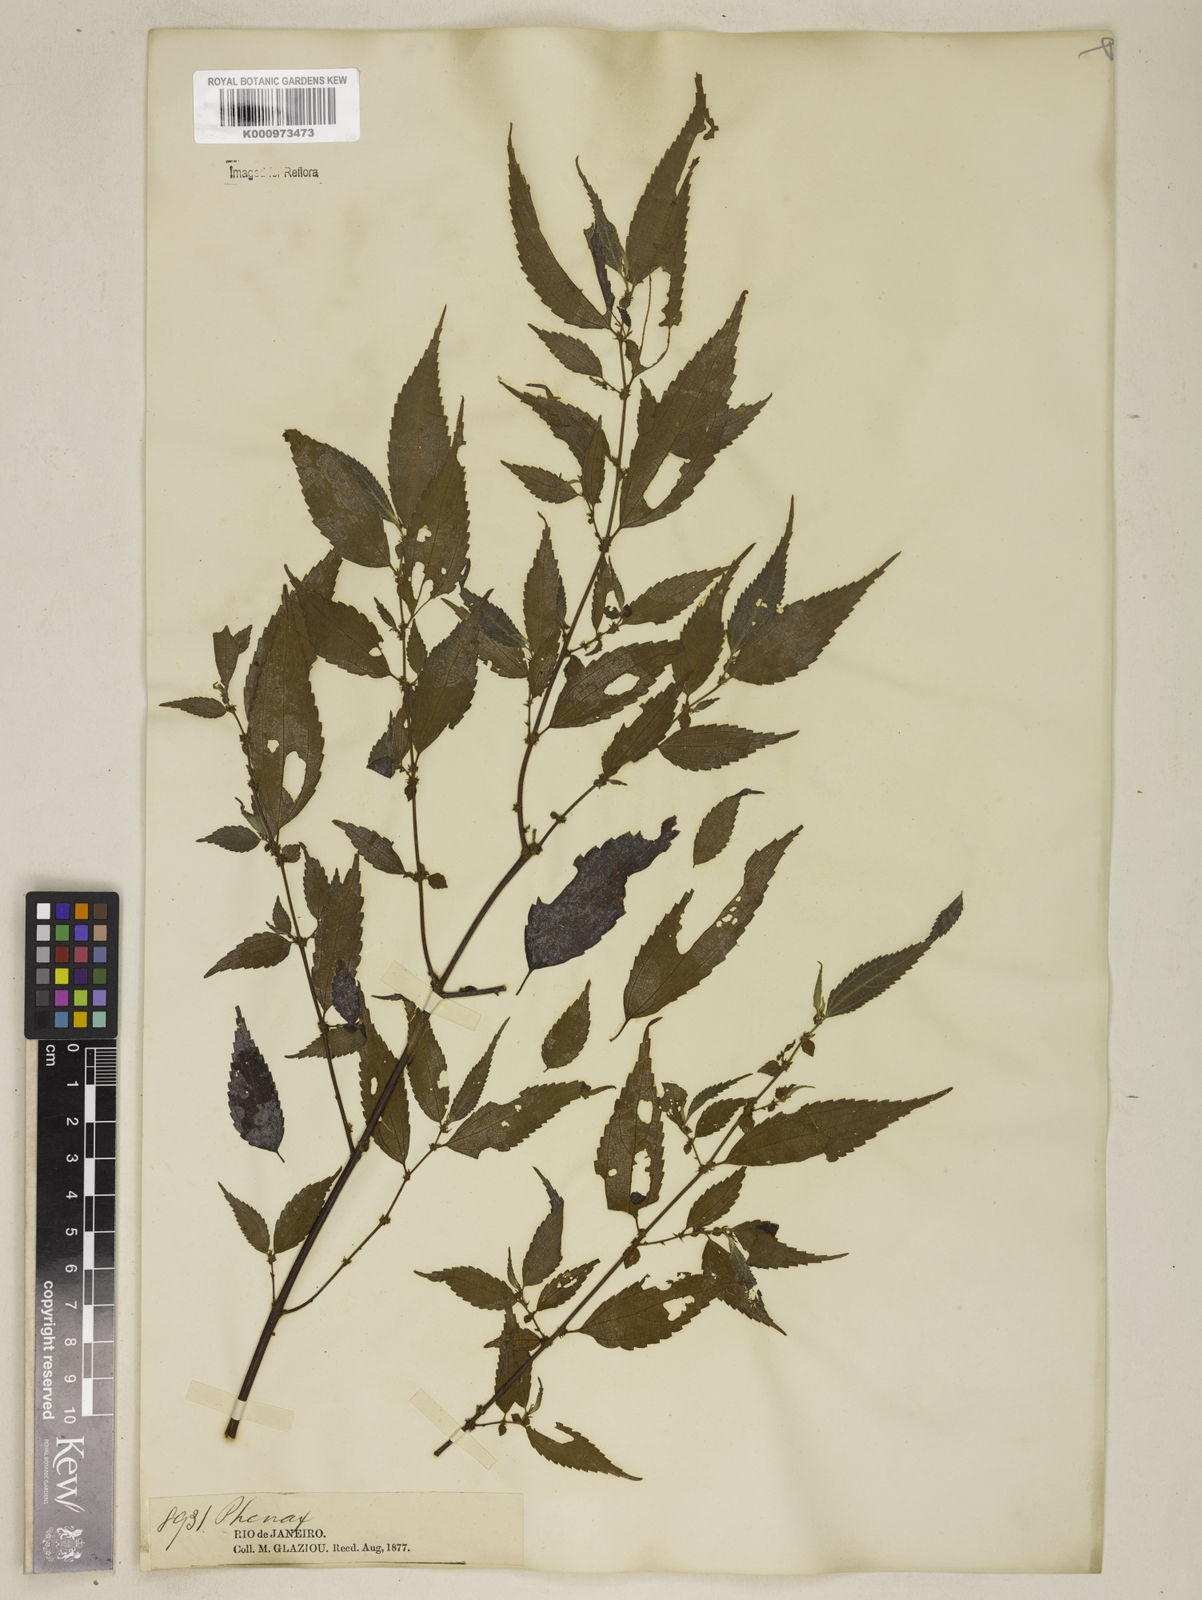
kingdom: Plantae
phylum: Tracheophyta
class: Magnoliopsida
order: Rosales
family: Urticaceae
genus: Phenax
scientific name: Phenax sonneratii
